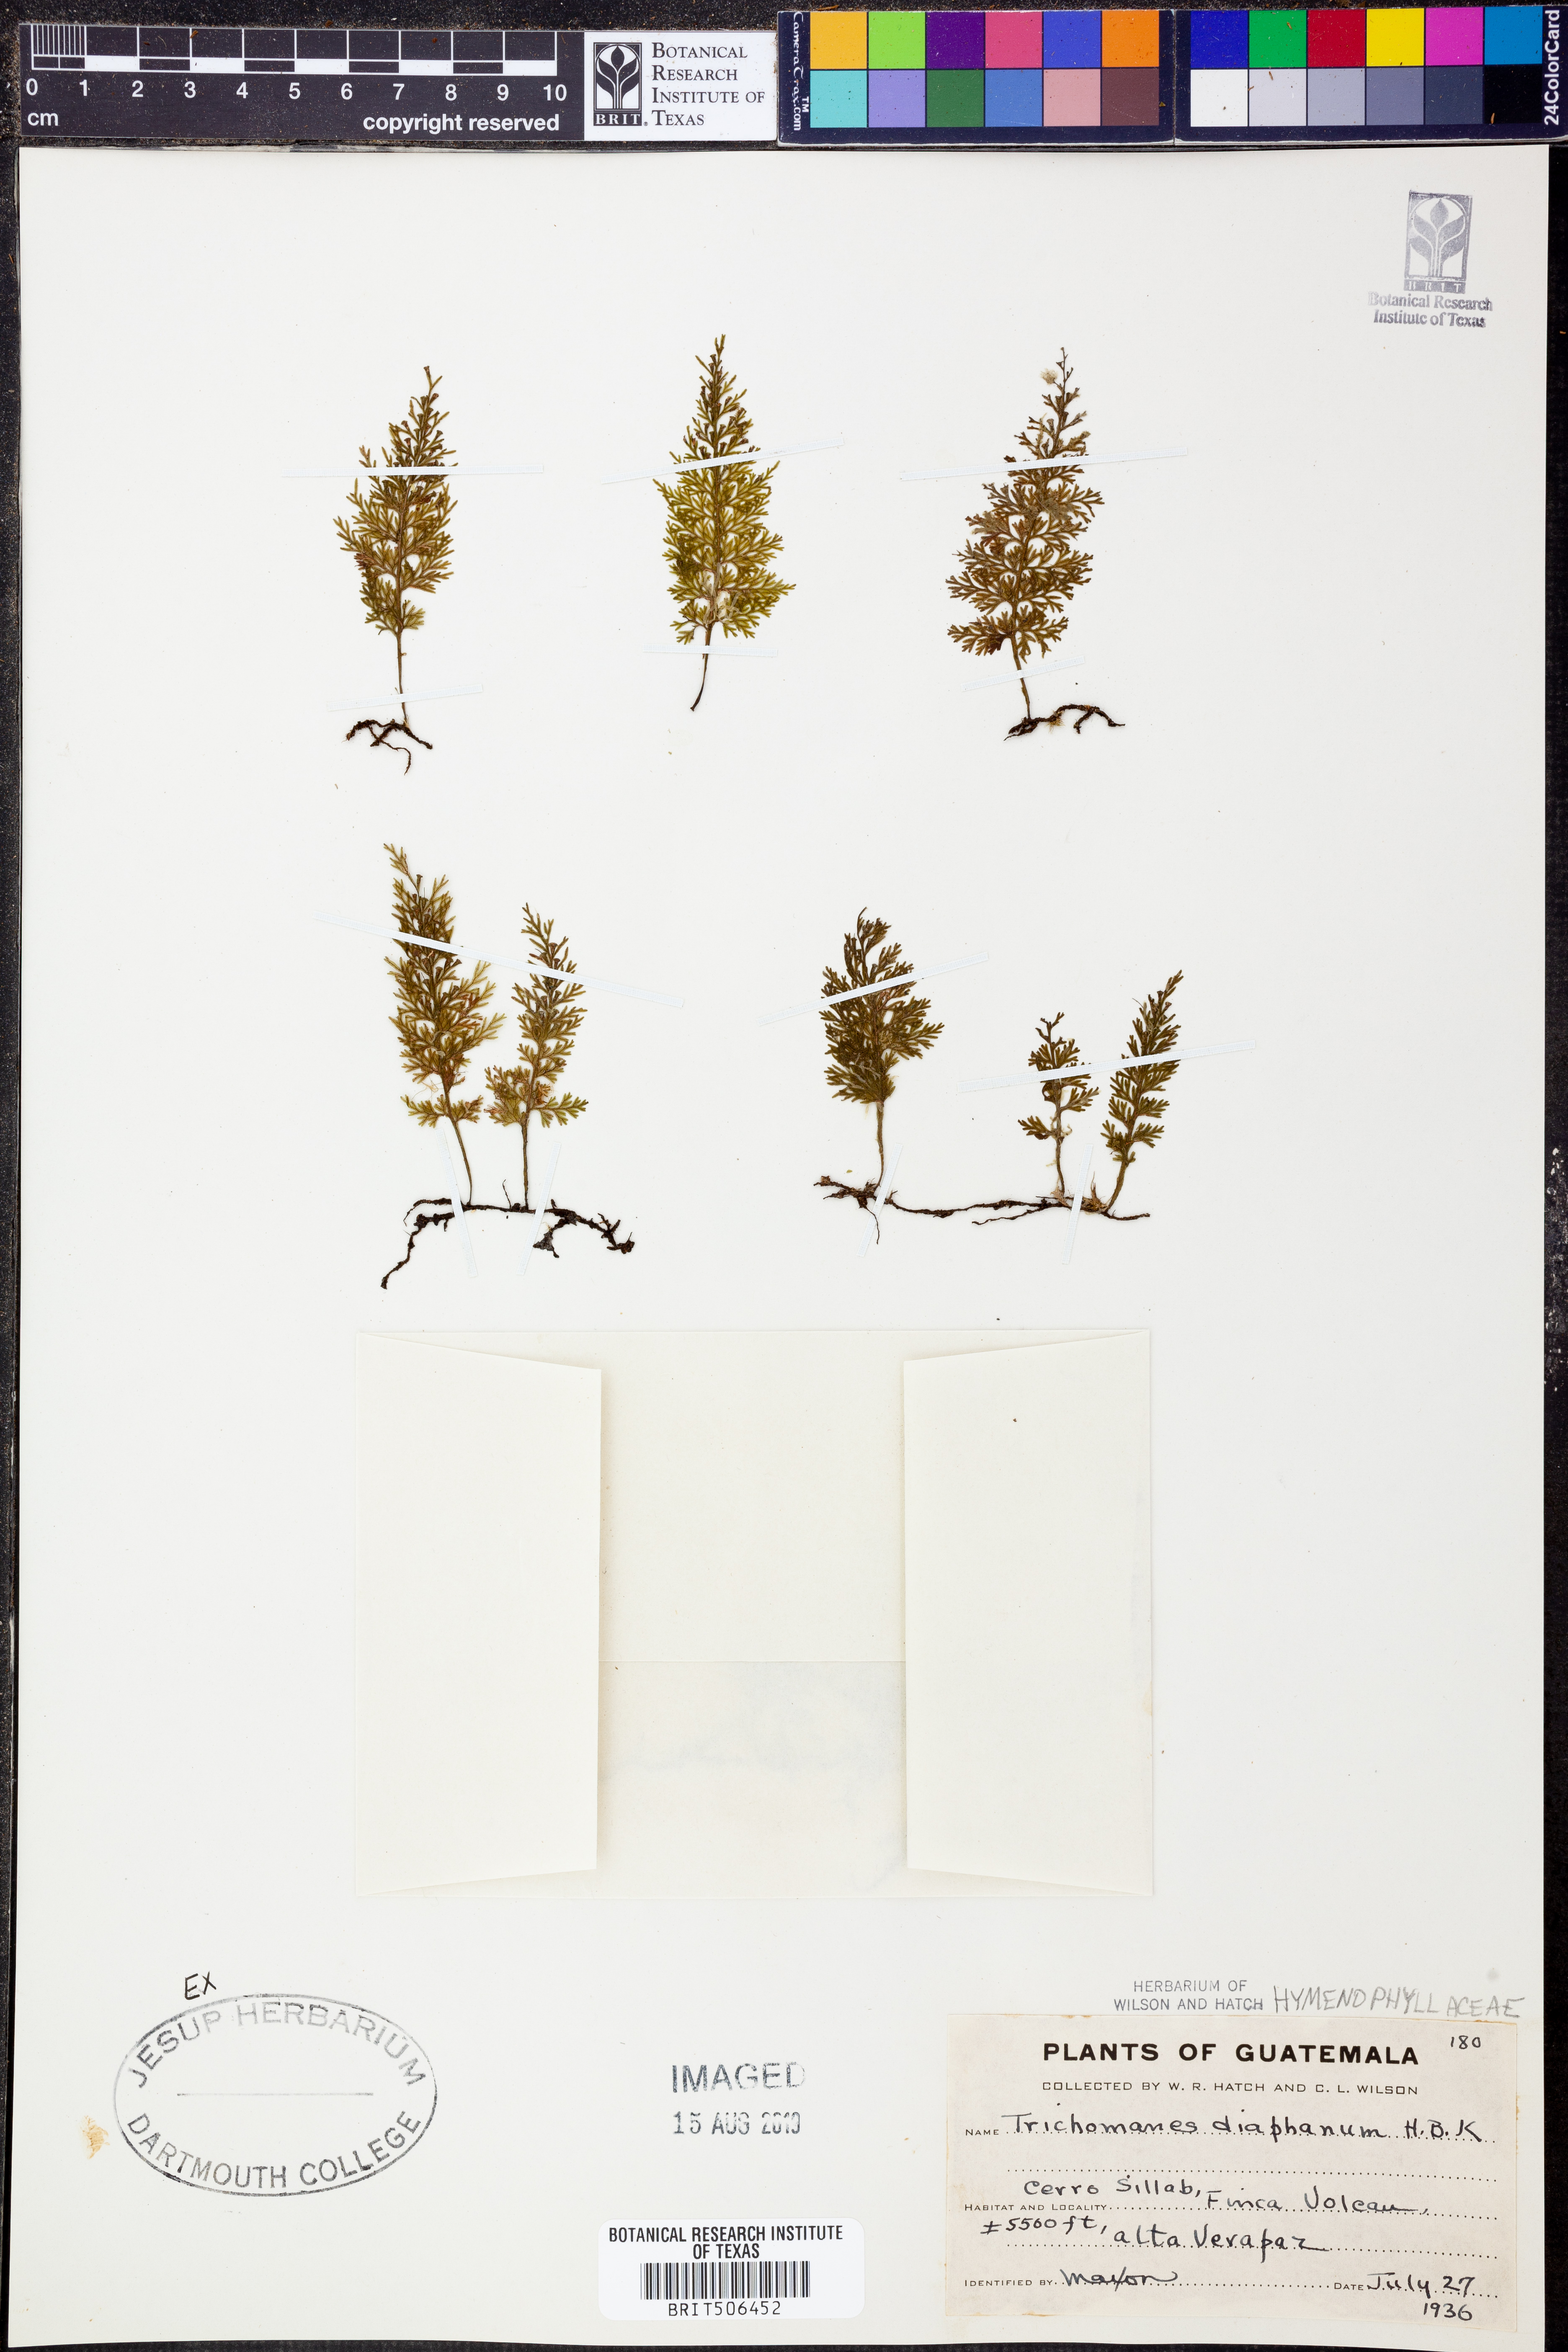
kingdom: Plantae
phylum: Tracheophyta
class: Polypodiopsida
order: Hymenophyllales
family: Hymenophyllaceae
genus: Polyphlebium
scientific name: Polyphlebium diaphanum
